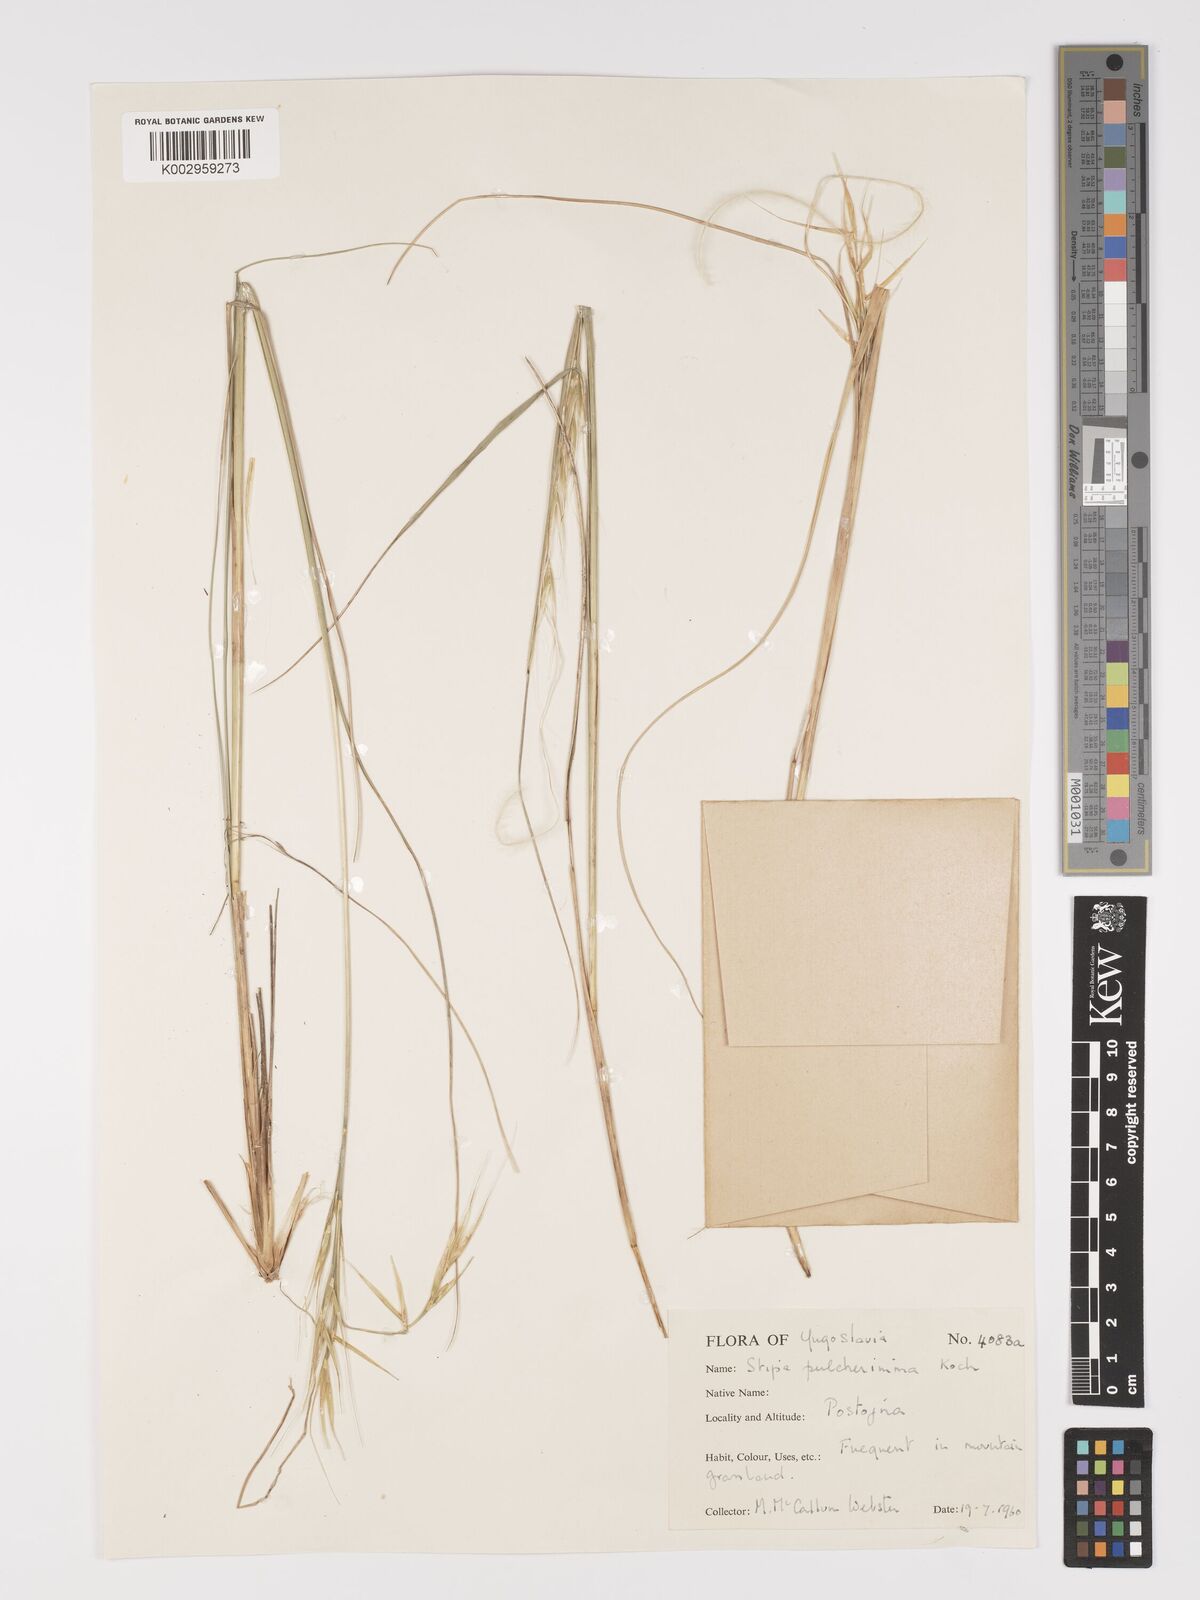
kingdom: Plantae
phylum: Tracheophyta
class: Liliopsida
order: Poales
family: Poaceae
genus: Stipa
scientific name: Stipa pulcherrima
